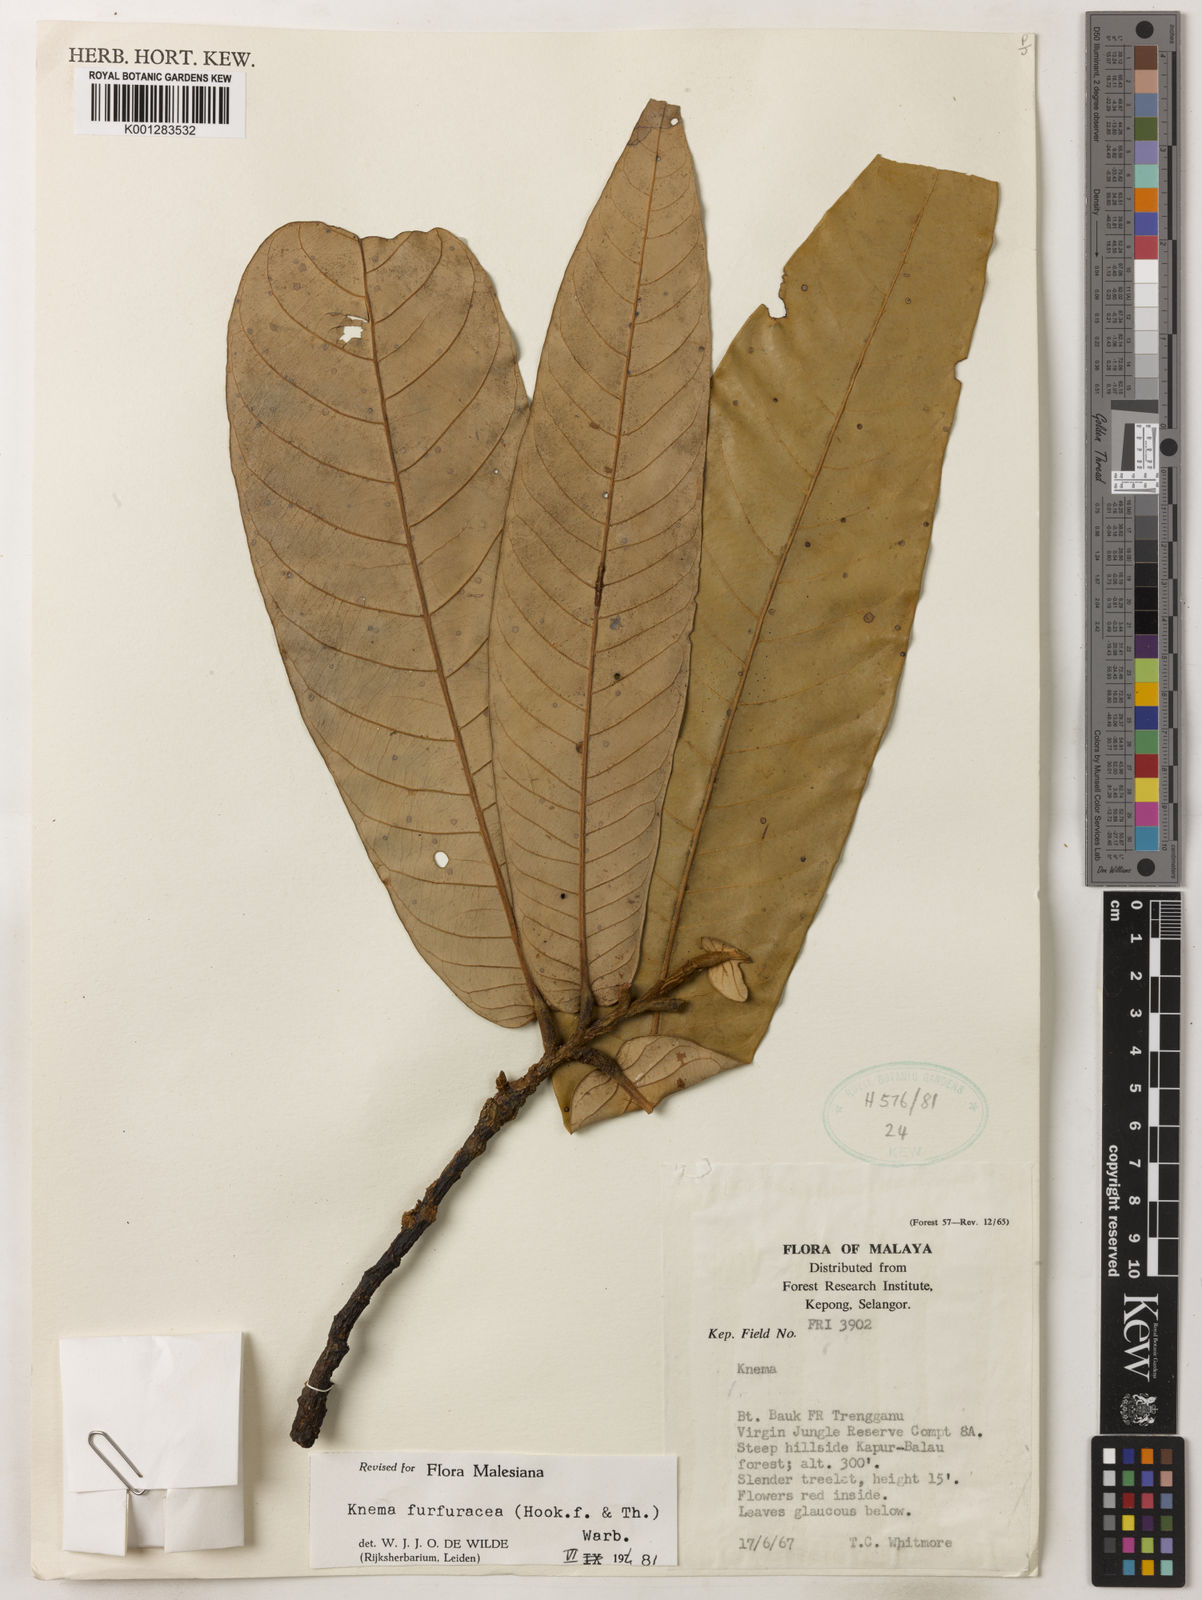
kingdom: Plantae
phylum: Tracheophyta
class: Magnoliopsida
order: Magnoliales
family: Myristicaceae
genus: Knema
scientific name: Knema furfuracea
